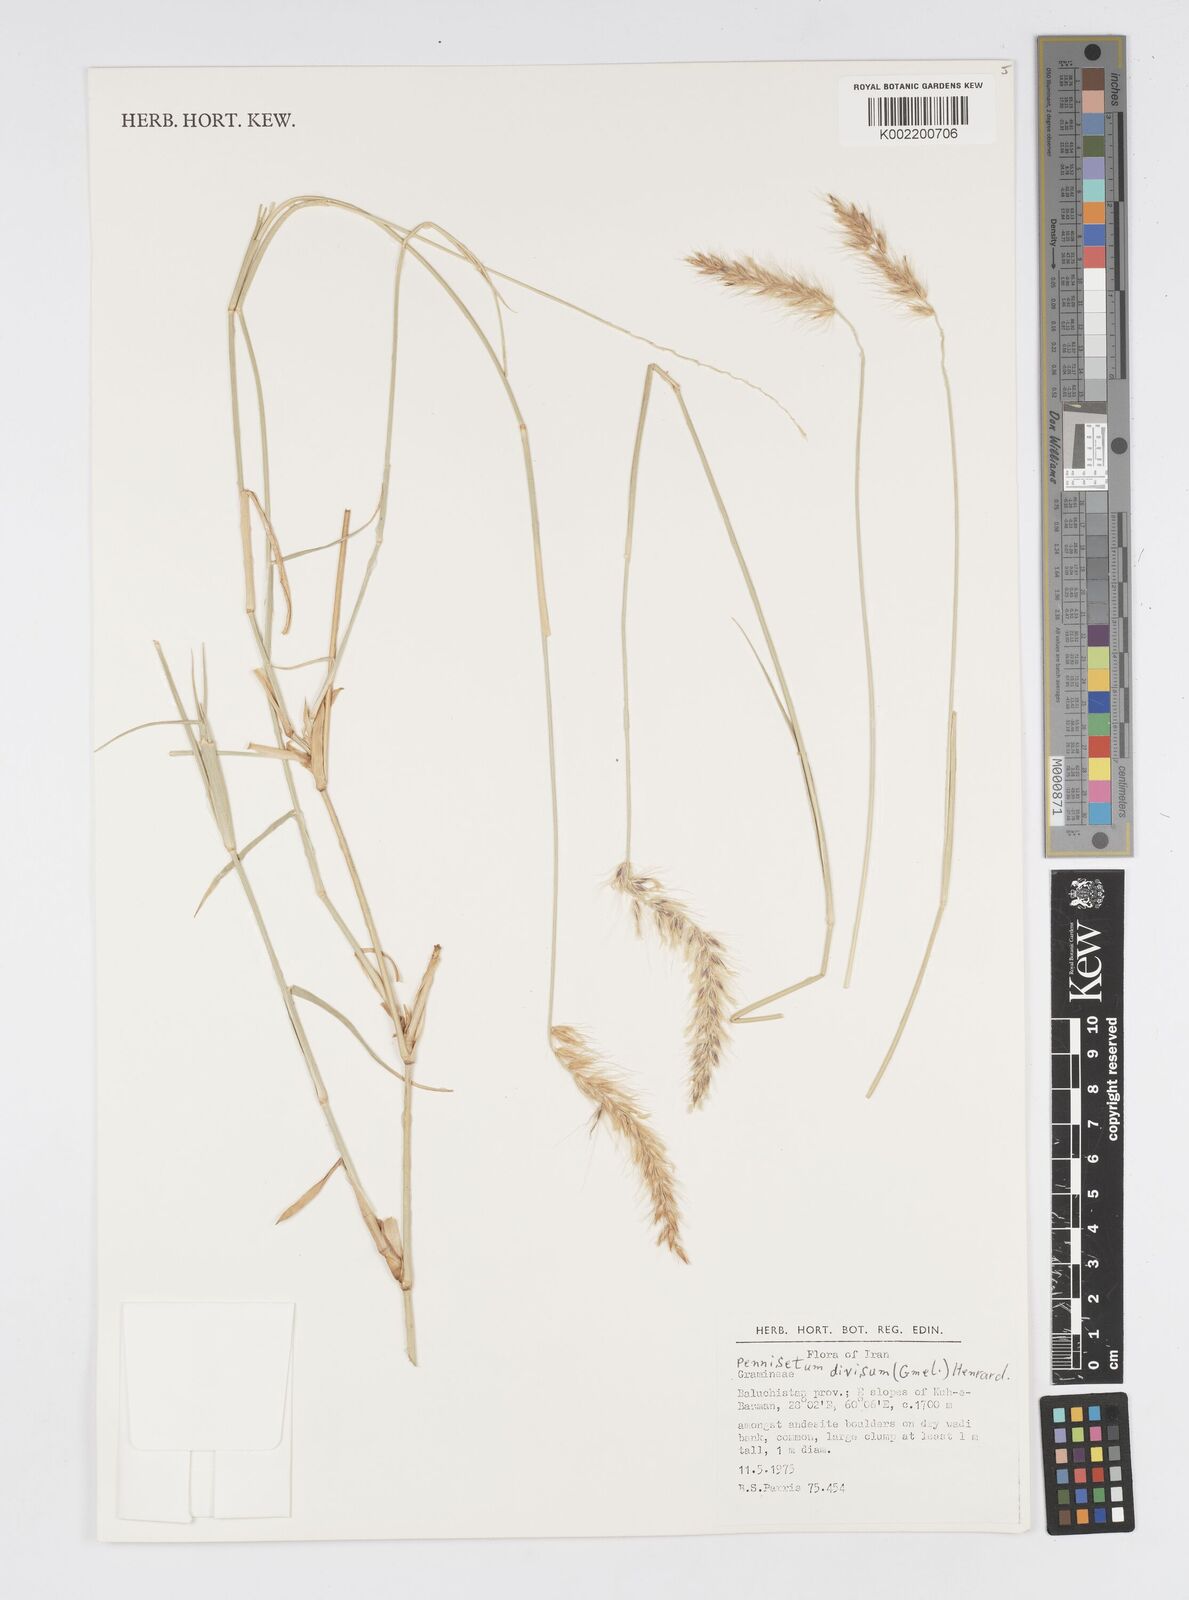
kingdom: Plantae
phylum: Tracheophyta
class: Liliopsida
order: Poales
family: Poaceae
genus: Cenchrus
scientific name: Cenchrus divisus
